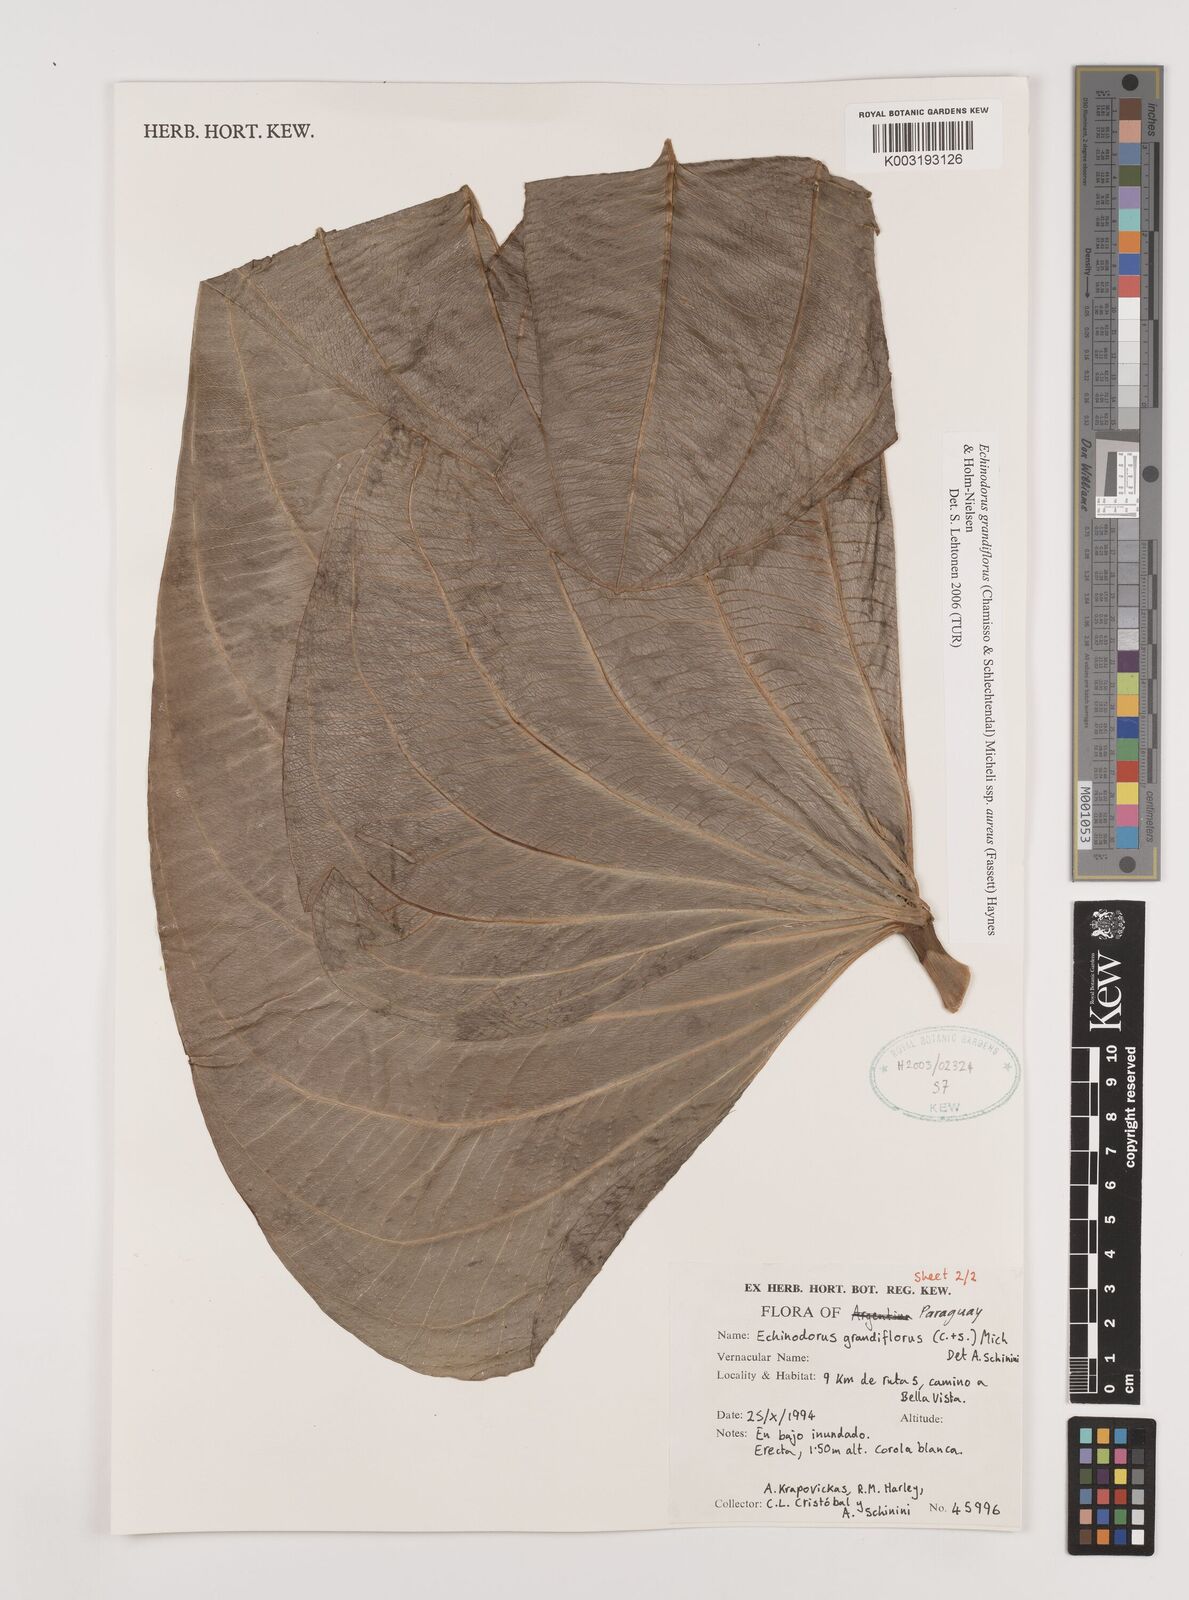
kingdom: Plantae
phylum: Tracheophyta
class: Liliopsida
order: Alismatales
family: Alismataceae
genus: Aquarius
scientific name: Aquarius floribundus
